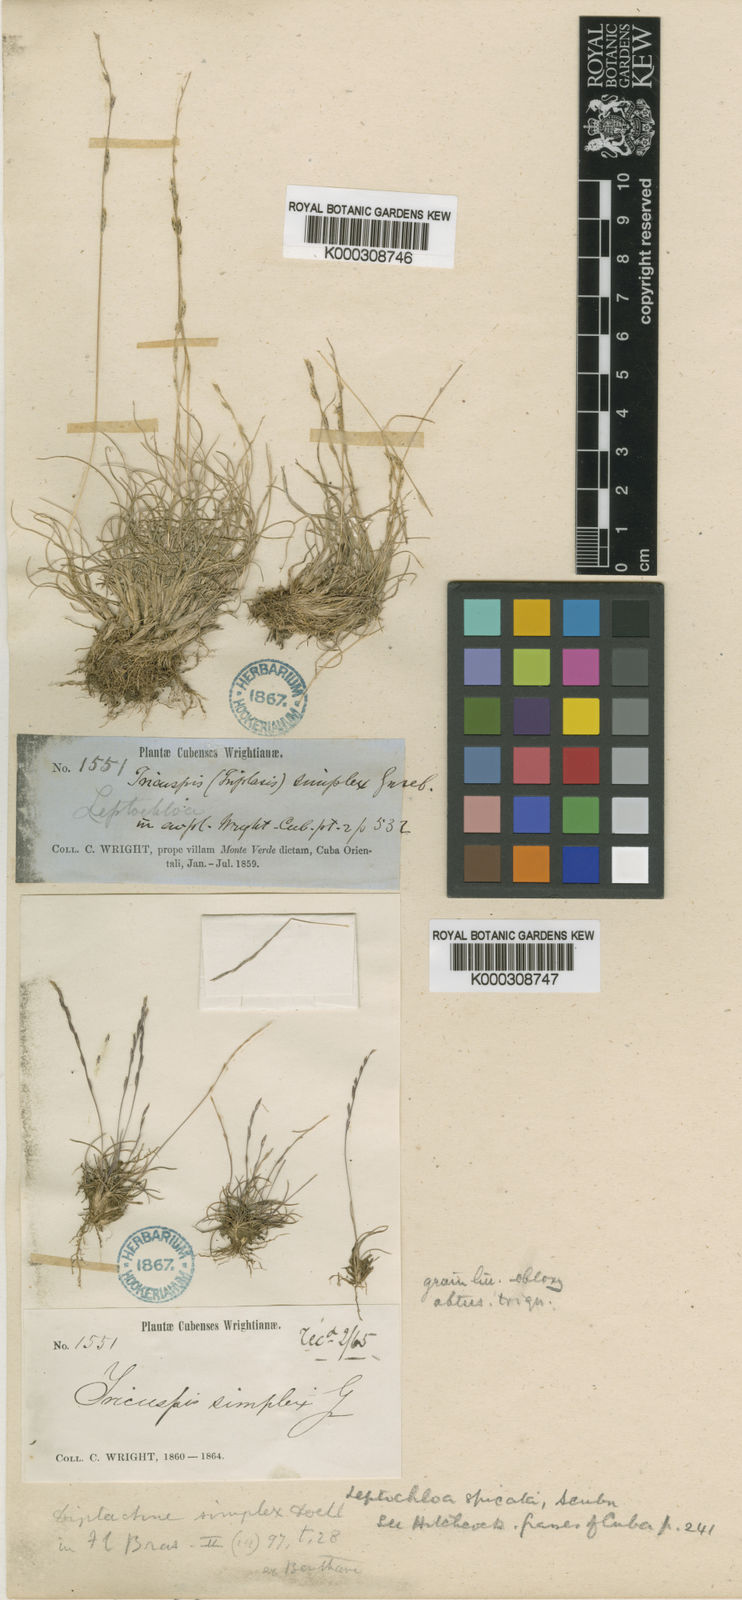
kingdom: Plantae
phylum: Tracheophyta
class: Liliopsida
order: Poales
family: Poaceae
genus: Tripogonella
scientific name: Tripogonella spicata
